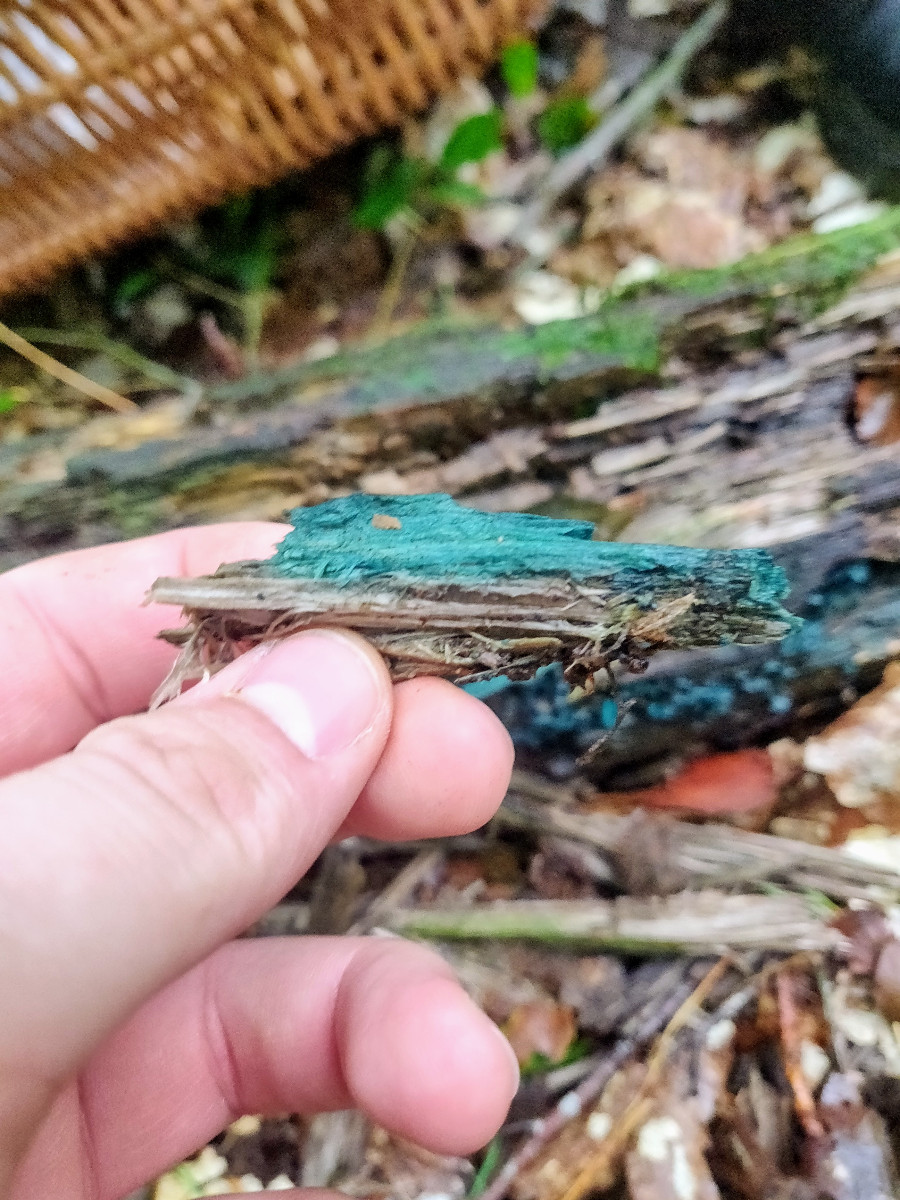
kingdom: Fungi
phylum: Ascomycota
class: Leotiomycetes
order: Helotiales
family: Chlorociboriaceae
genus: Chlorociboria
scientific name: Chlorociboria aeruginascens
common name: almindelig grønskive
